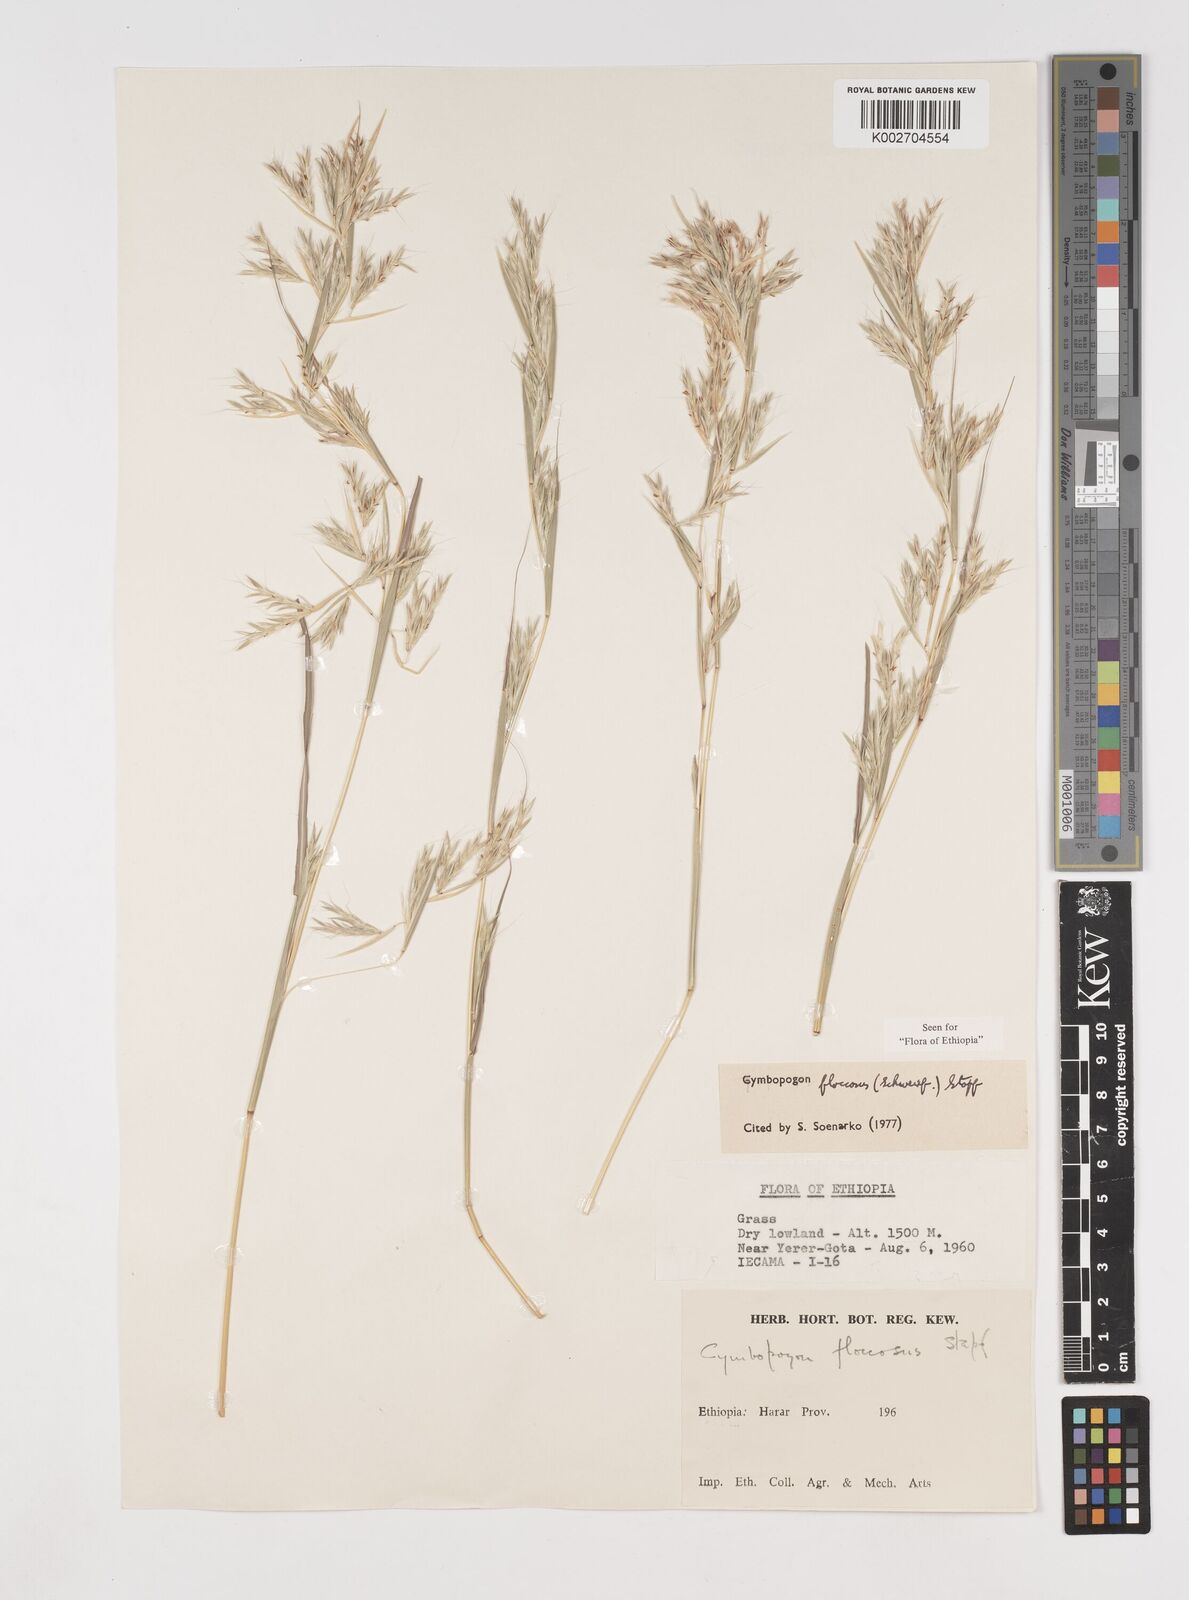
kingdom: Plantae
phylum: Tracheophyta
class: Liliopsida
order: Poales
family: Poaceae
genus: Cymbopogon
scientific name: Cymbopogon commutatus
